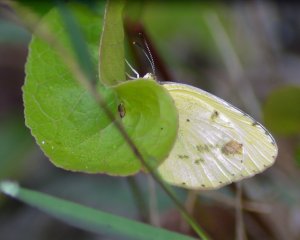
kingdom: Animalia
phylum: Arthropoda
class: Insecta
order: Lepidoptera
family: Pieridae
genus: Pyrisitia
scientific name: Pyrisitia lisa
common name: Little Yellow
